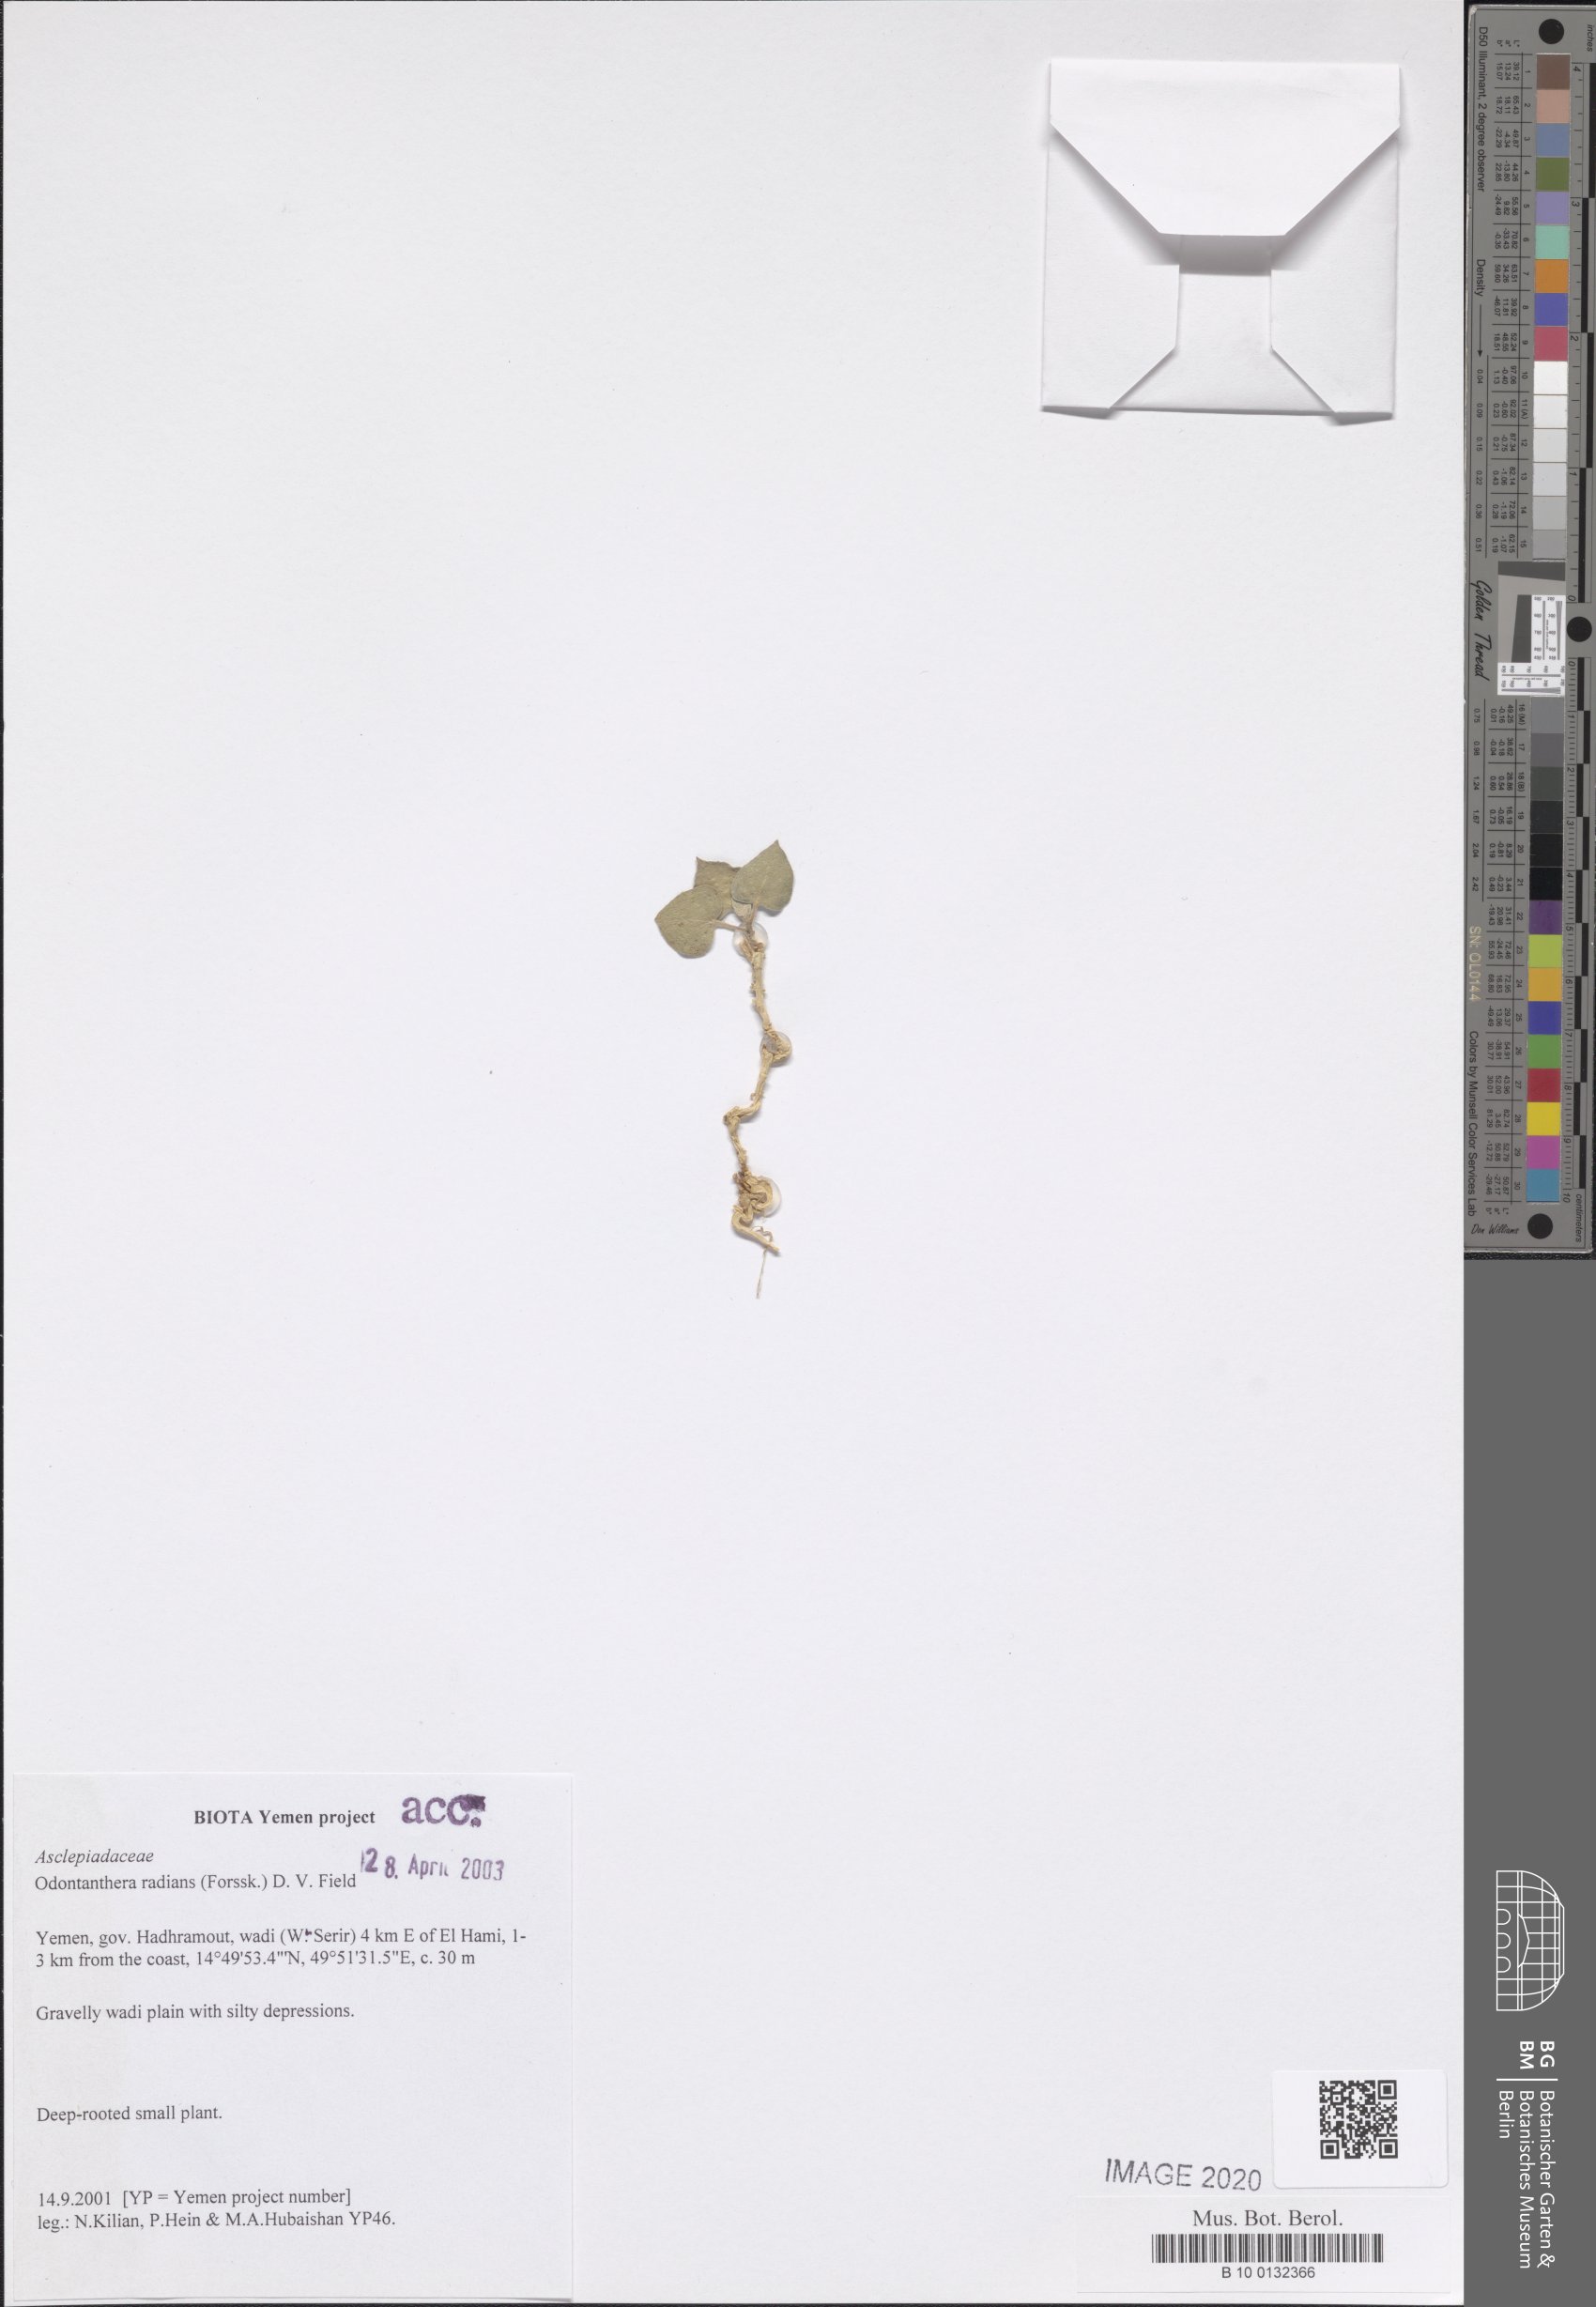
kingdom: Plantae
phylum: Tracheophyta
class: Magnoliopsida
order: Gentianales
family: Apocynaceae
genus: Cynanchum
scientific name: Cynanchum radians
